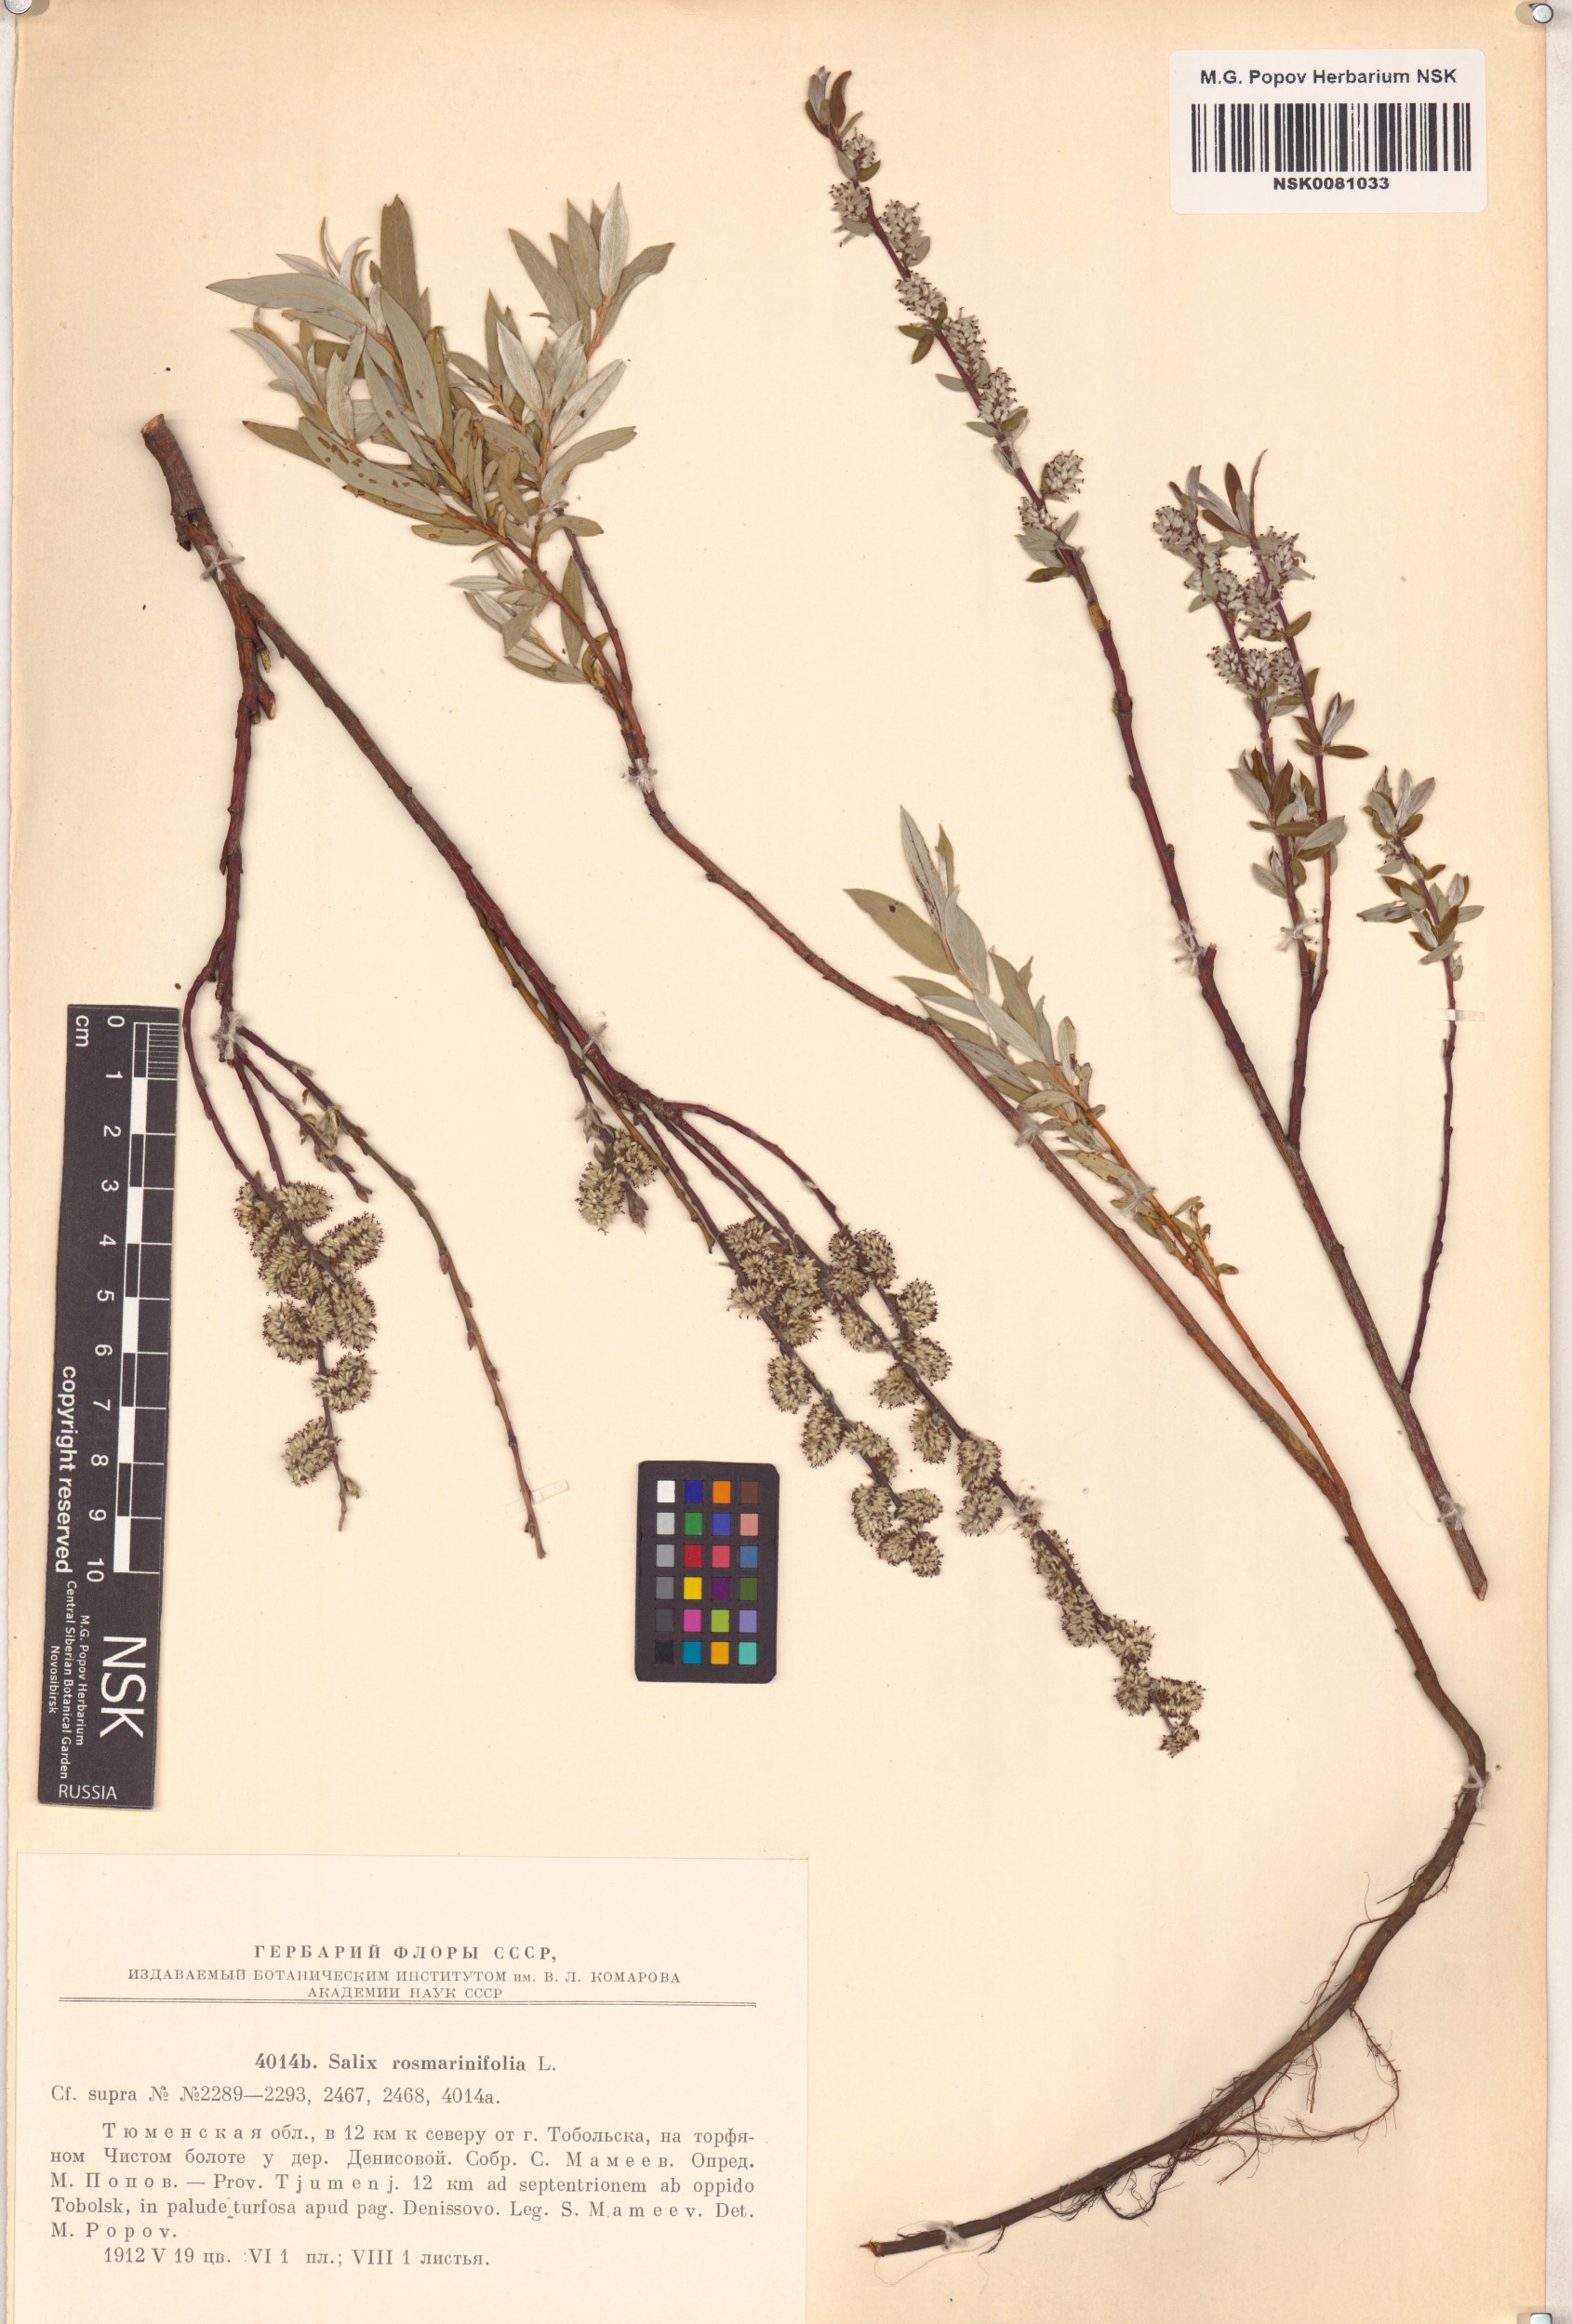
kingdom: Plantae
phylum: Tracheophyta
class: Magnoliopsida
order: Malpighiales
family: Salicaceae
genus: Salix
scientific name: Salix rosmarinifolia
